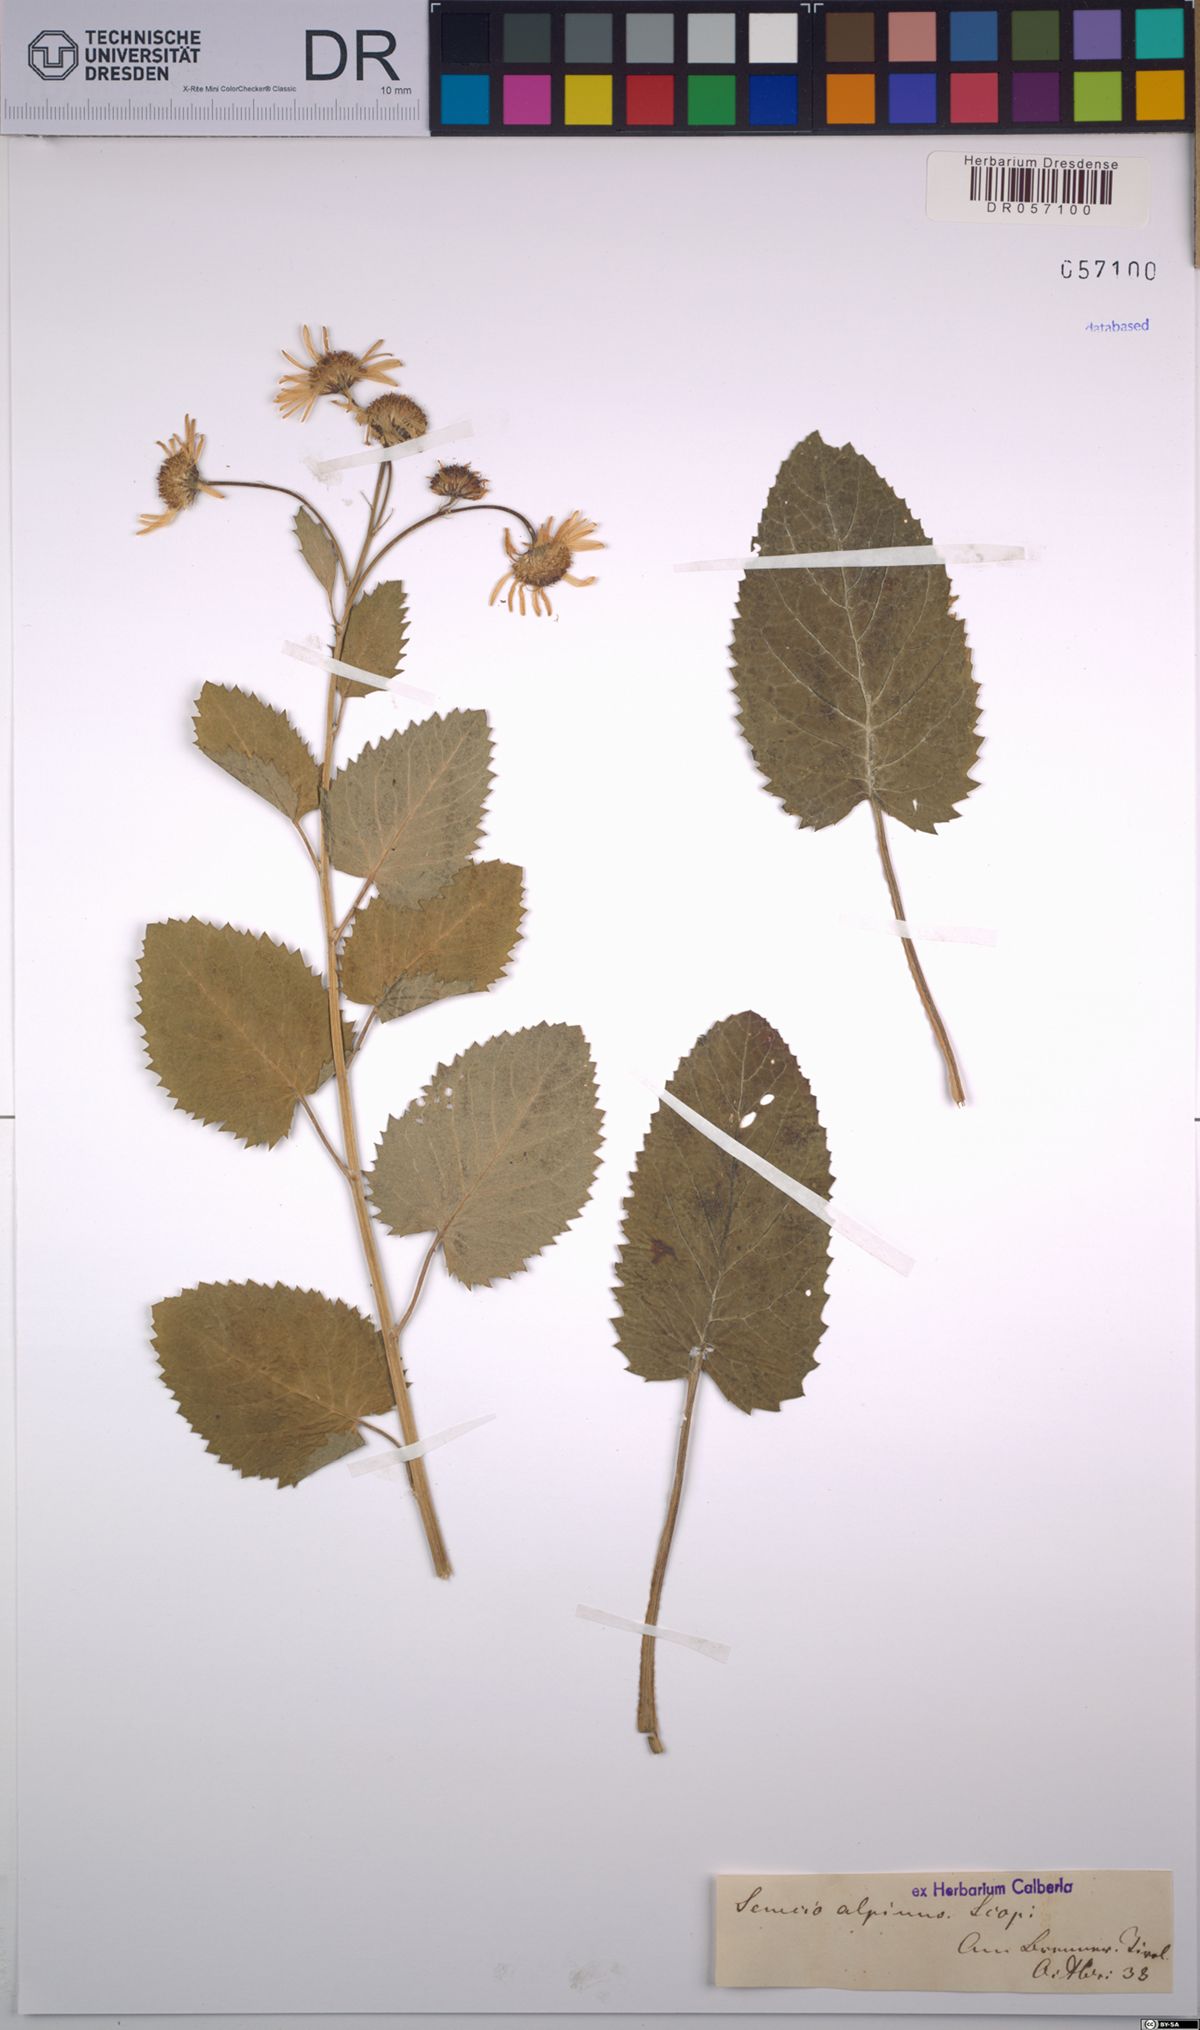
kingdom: Plantae
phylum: Tracheophyta
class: Magnoliopsida
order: Asterales
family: Asteraceae
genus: Jacobaea
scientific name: Jacobaea alpina
